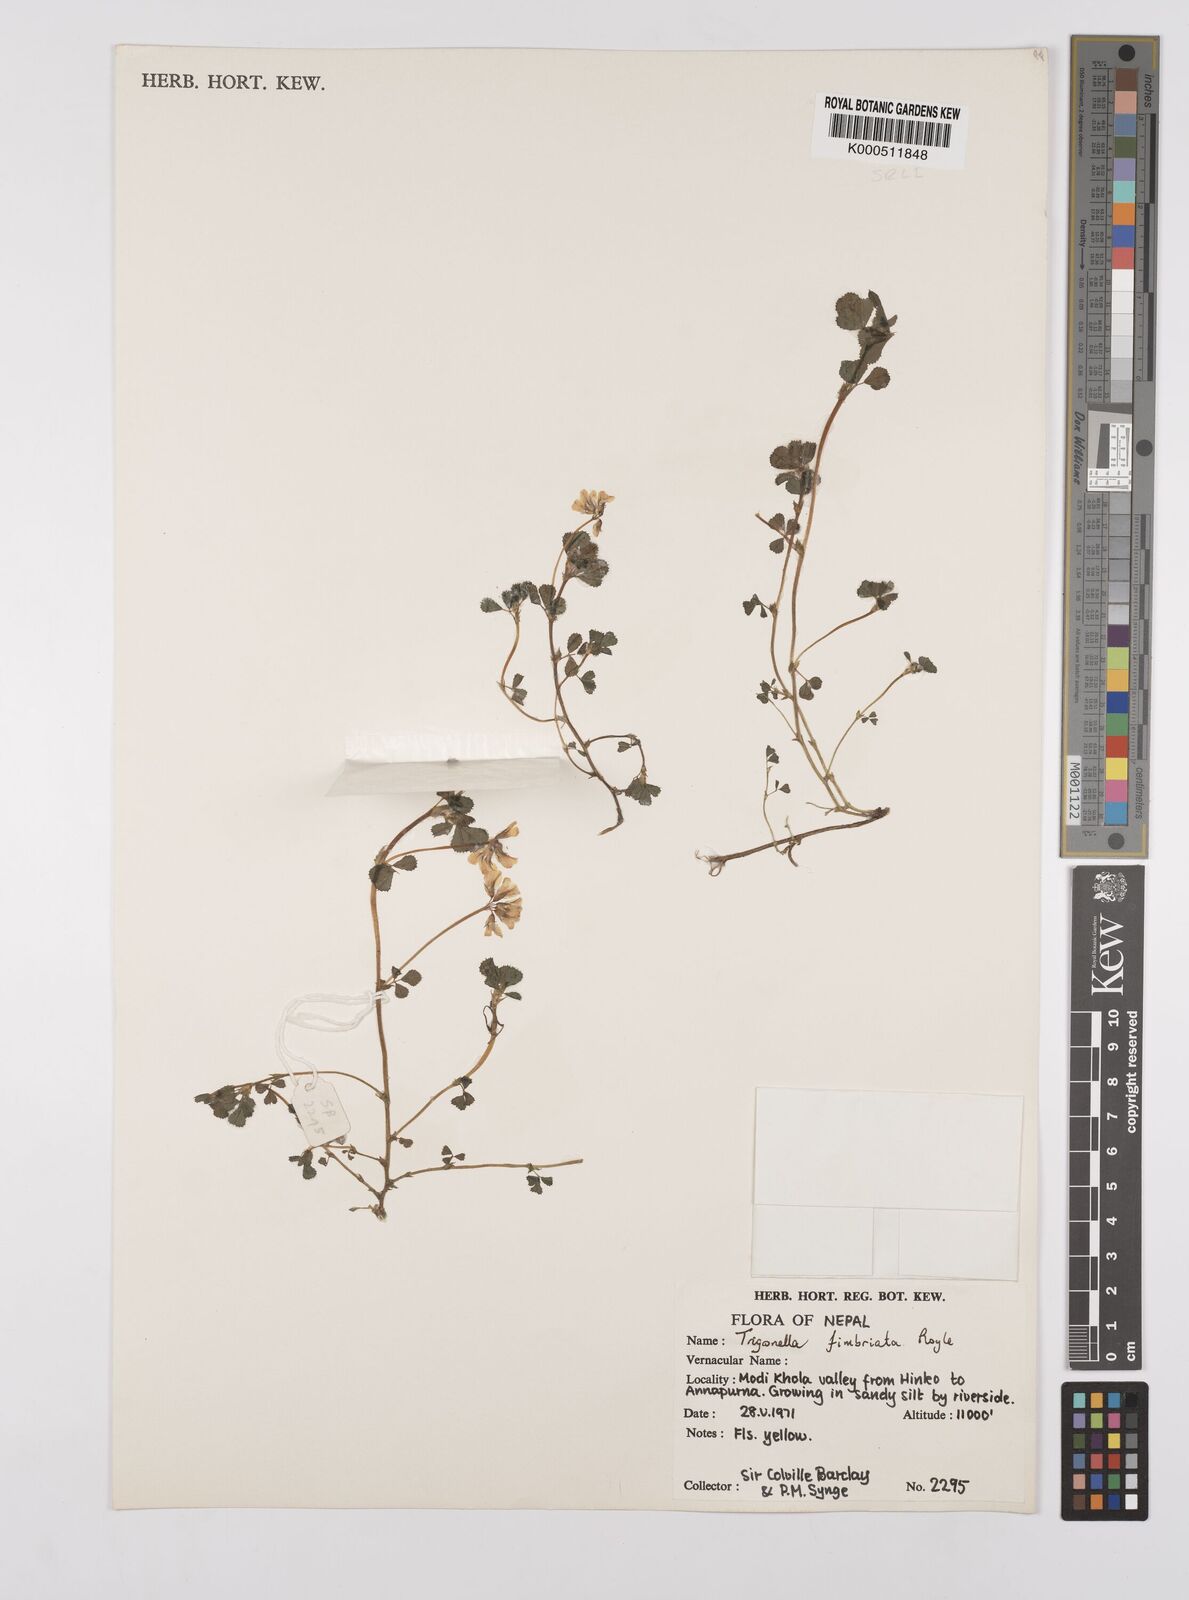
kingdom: Plantae
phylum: Tracheophyta
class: Magnoliopsida
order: Fabales
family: Fabaceae
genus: Trigonella
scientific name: Trigonella emodi
